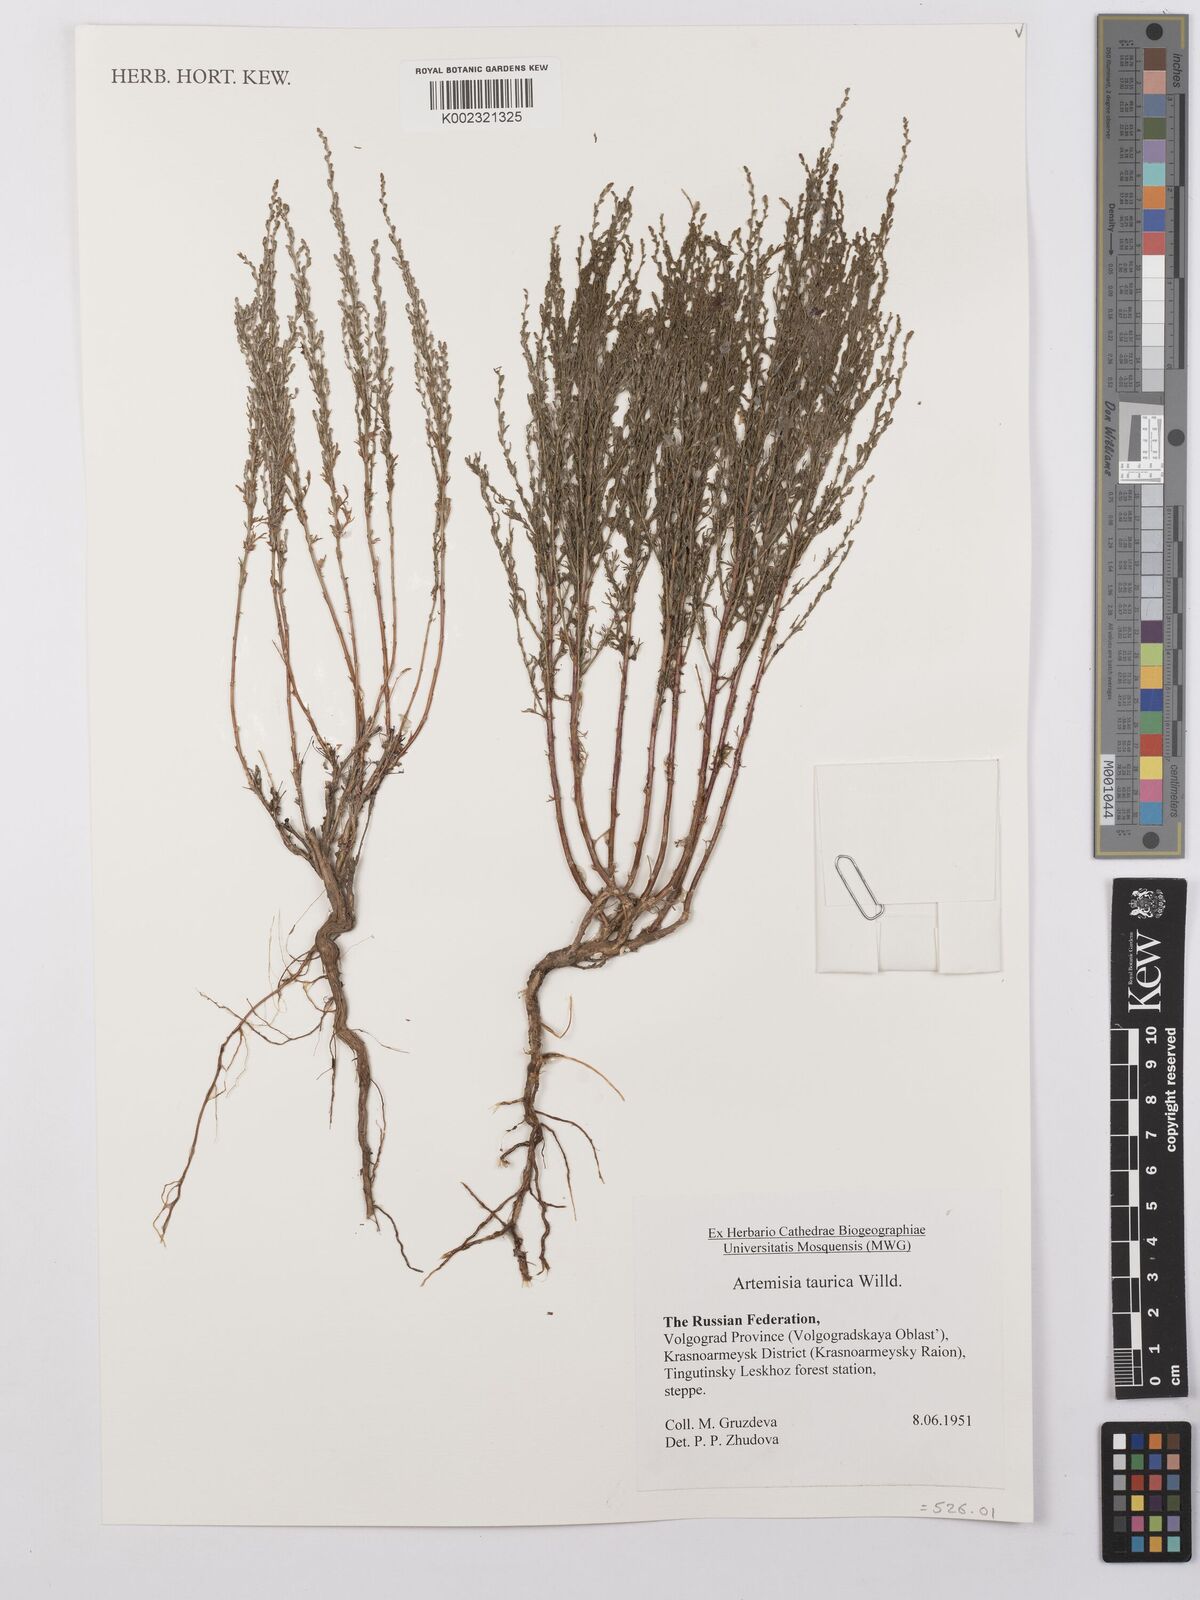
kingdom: Plantae
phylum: Tracheophyta
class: Magnoliopsida
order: Asterales
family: Asteraceae
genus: Artemisia
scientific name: Artemisia taurica
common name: Tauric wormwood
